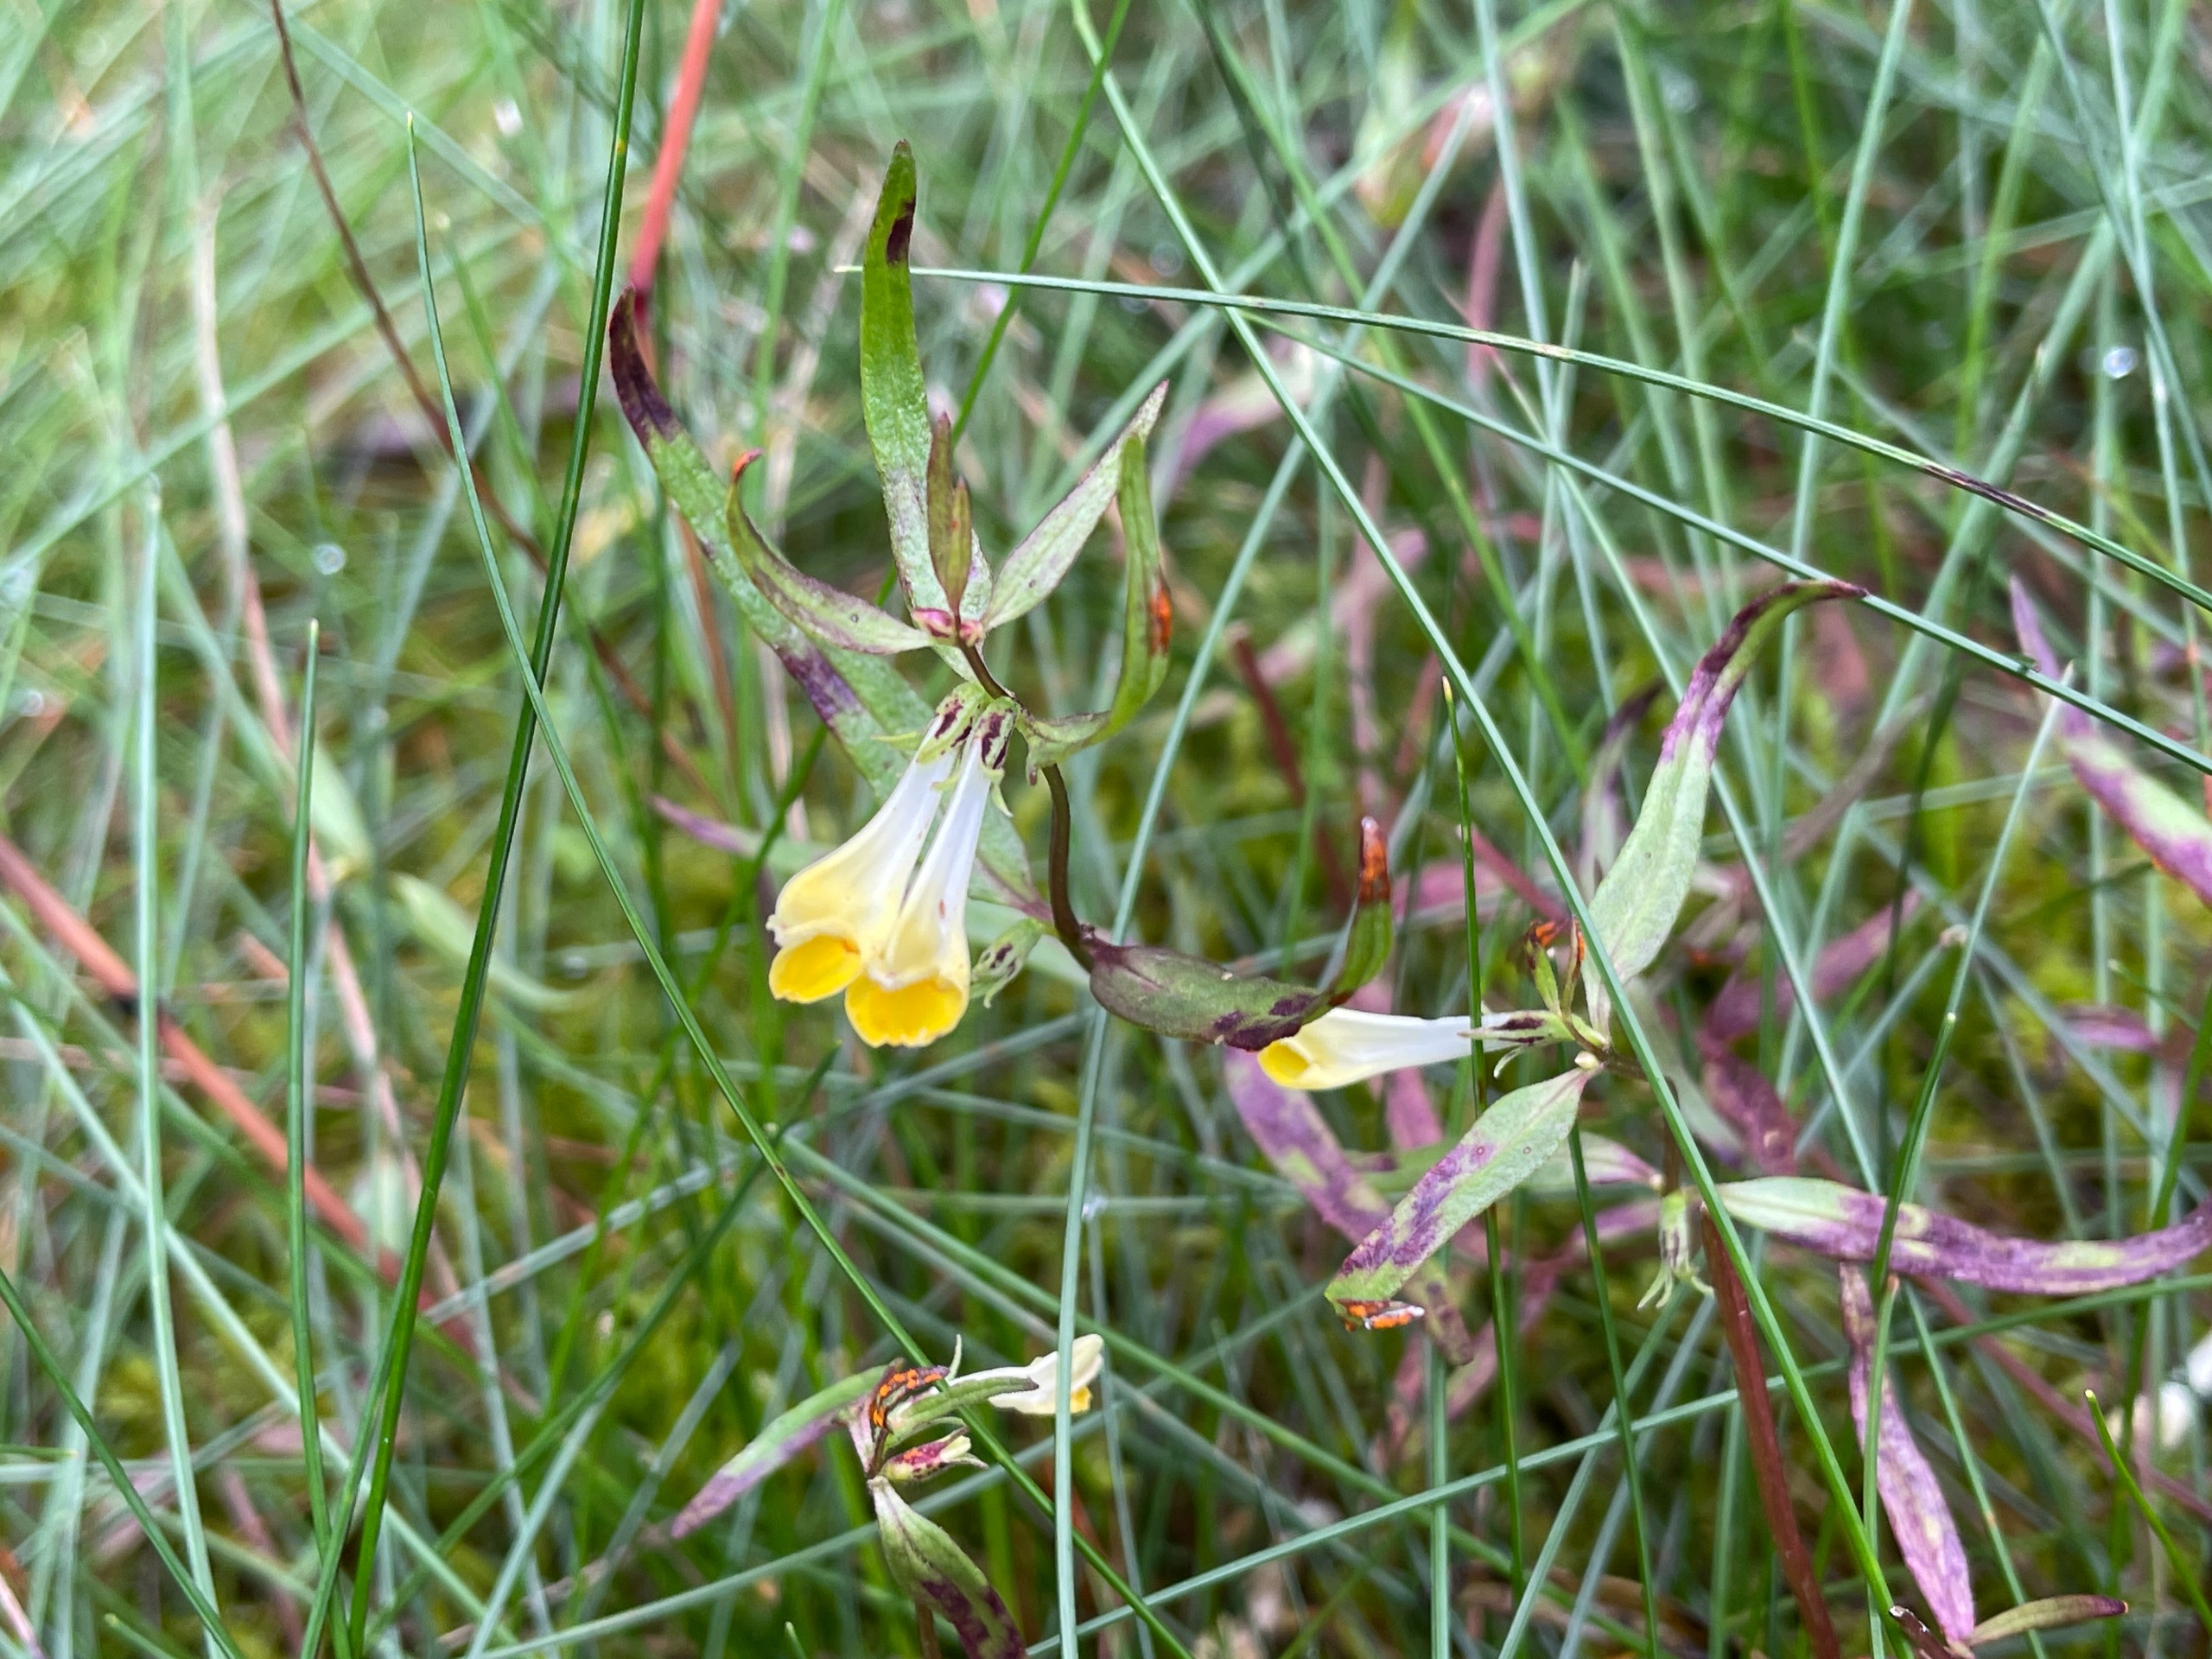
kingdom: Plantae
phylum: Tracheophyta
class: Magnoliopsida
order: Lamiales
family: Orobanchaceae
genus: Melampyrum
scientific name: Melampyrum pratense
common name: Almindelig kohvede
